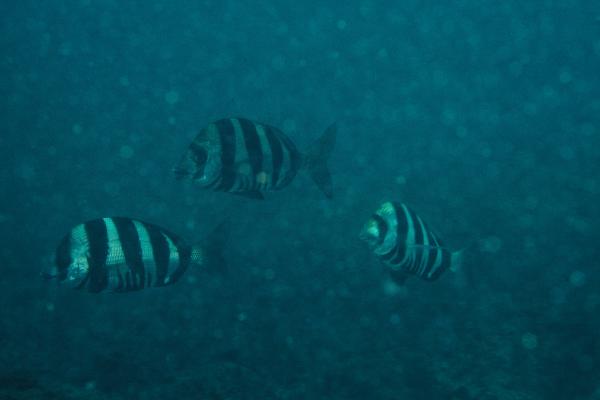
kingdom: Animalia
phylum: Chordata
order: Perciformes
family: Sparidae
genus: Diplodus
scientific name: Diplodus hottentotus
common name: Zebra
